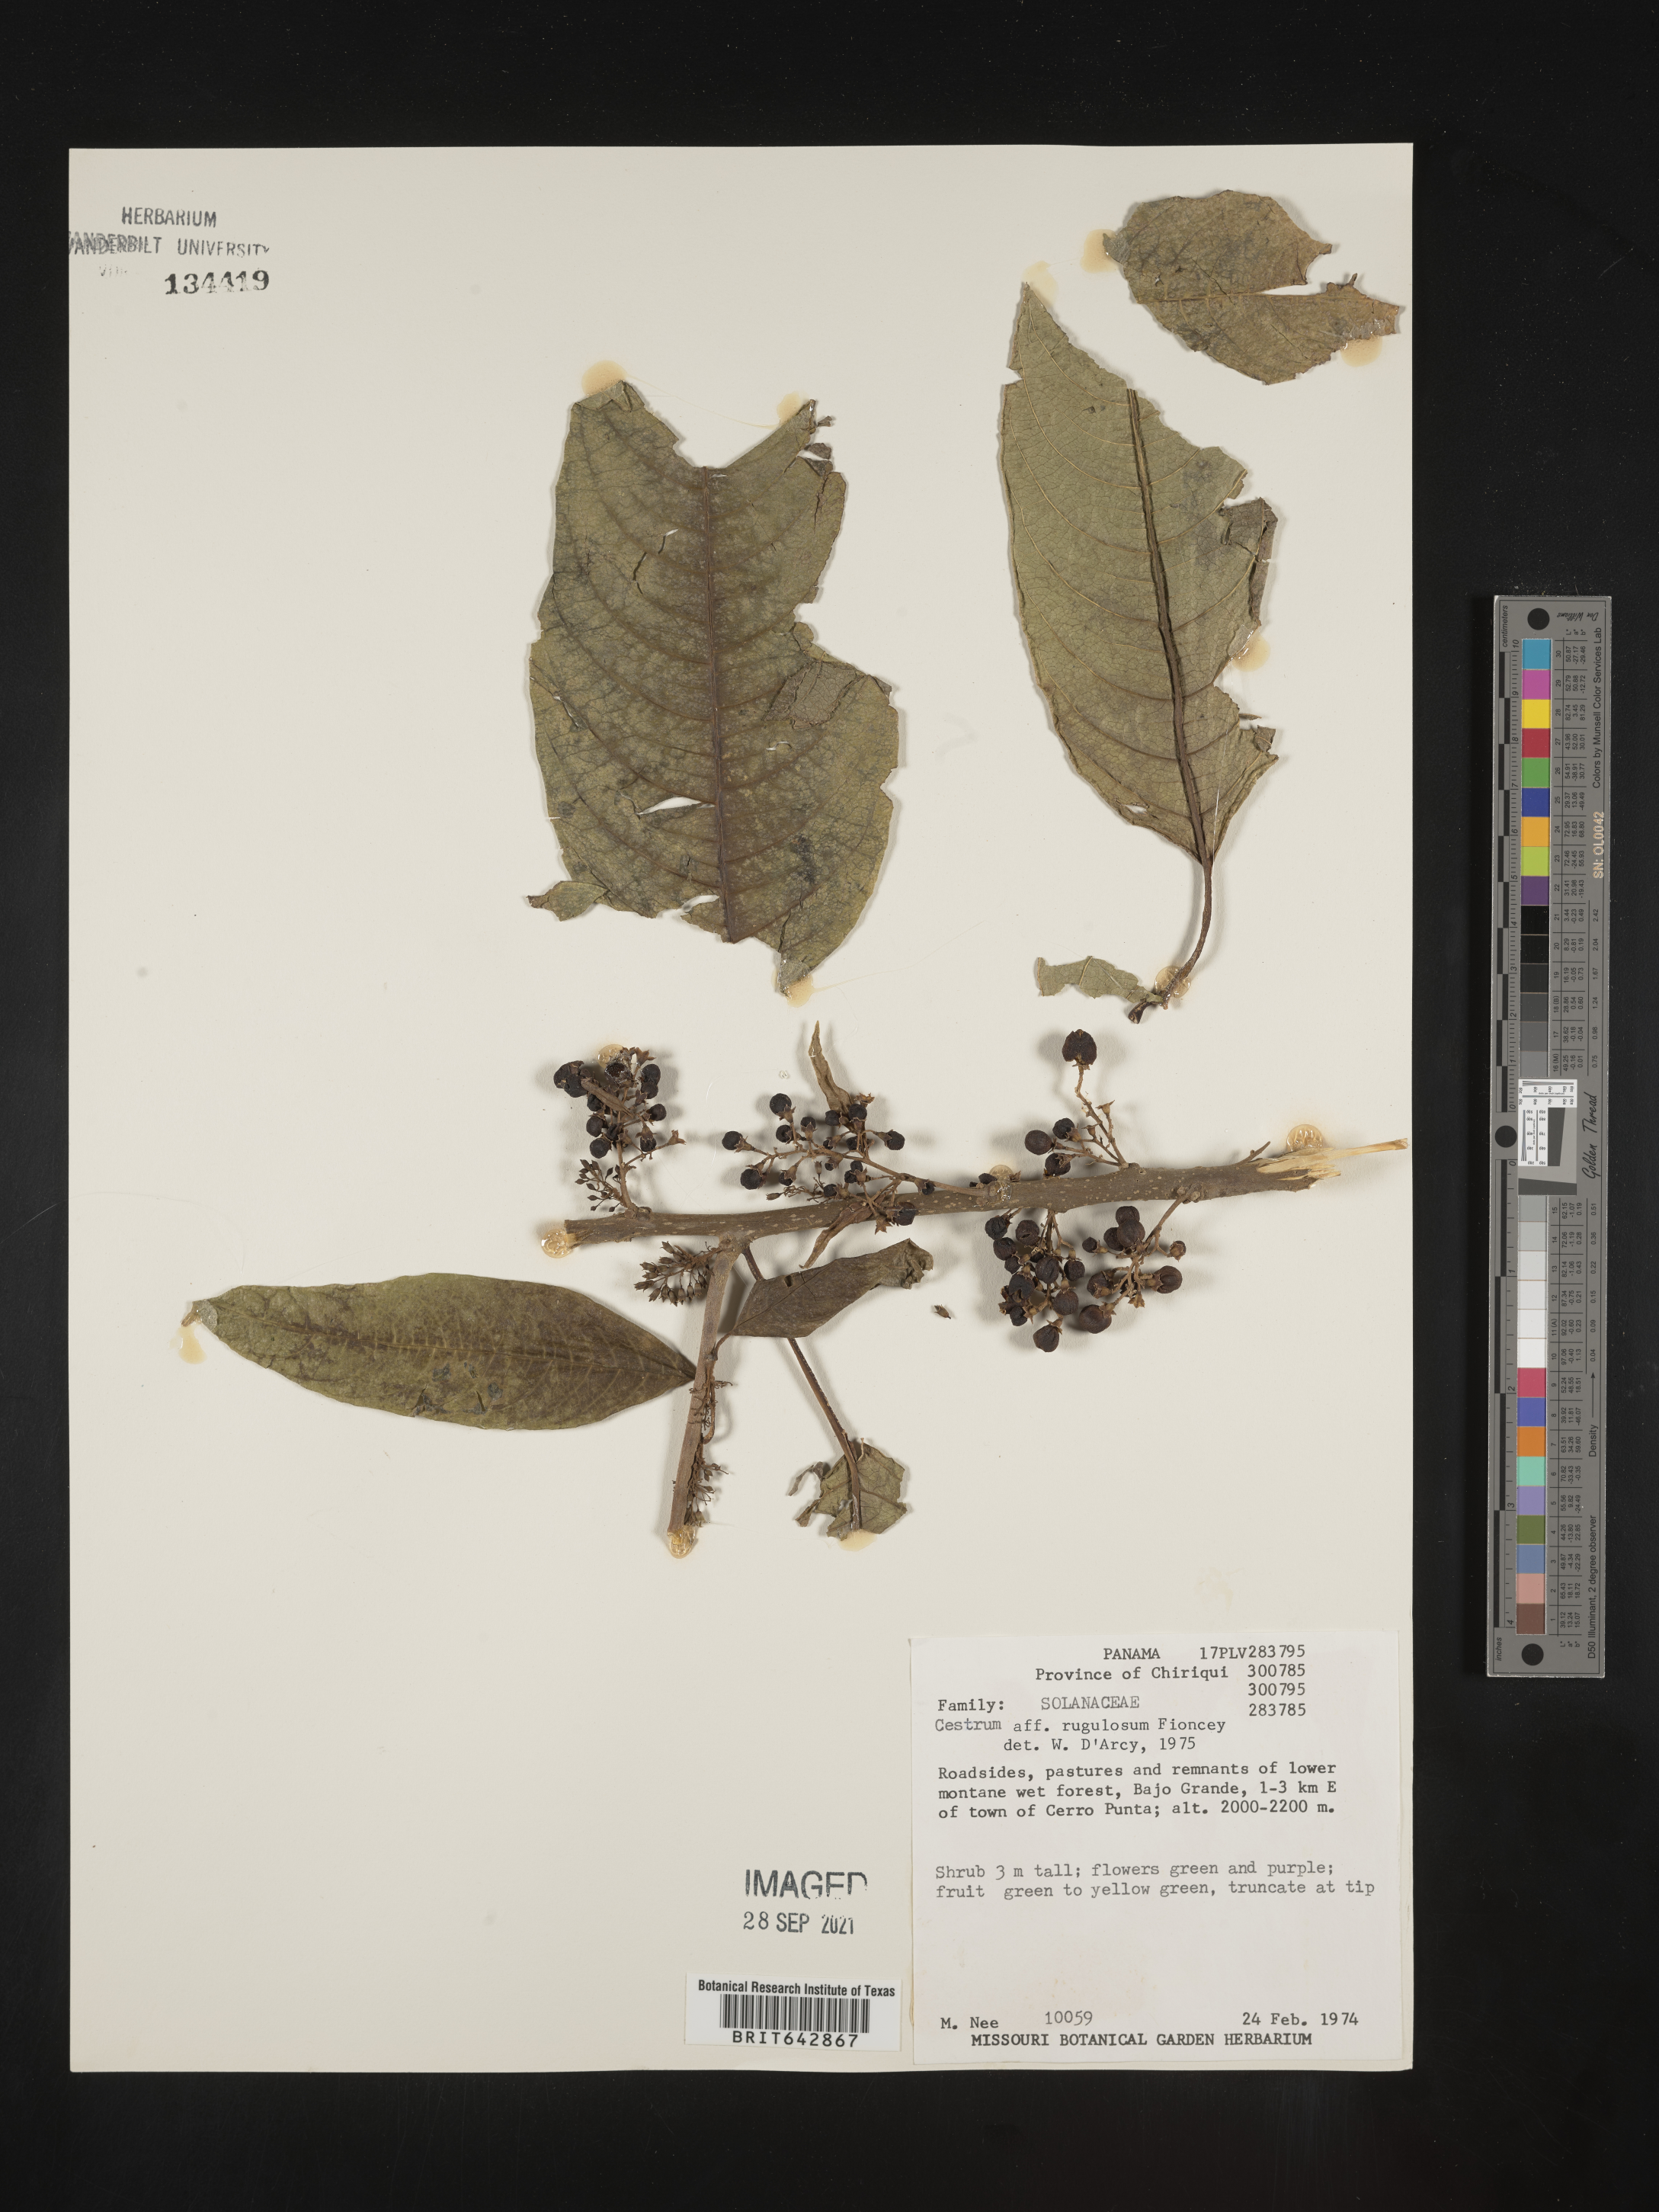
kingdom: Plantae
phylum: Tracheophyta
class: Magnoliopsida
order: Solanales
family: Solanaceae
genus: Cestrum
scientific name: Cestrum
